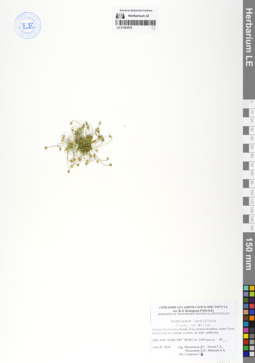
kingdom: Plantae
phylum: Tracheophyta
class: Magnoliopsida
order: Ericales
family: Primulaceae
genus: Androsace
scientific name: Androsace lactiflora
